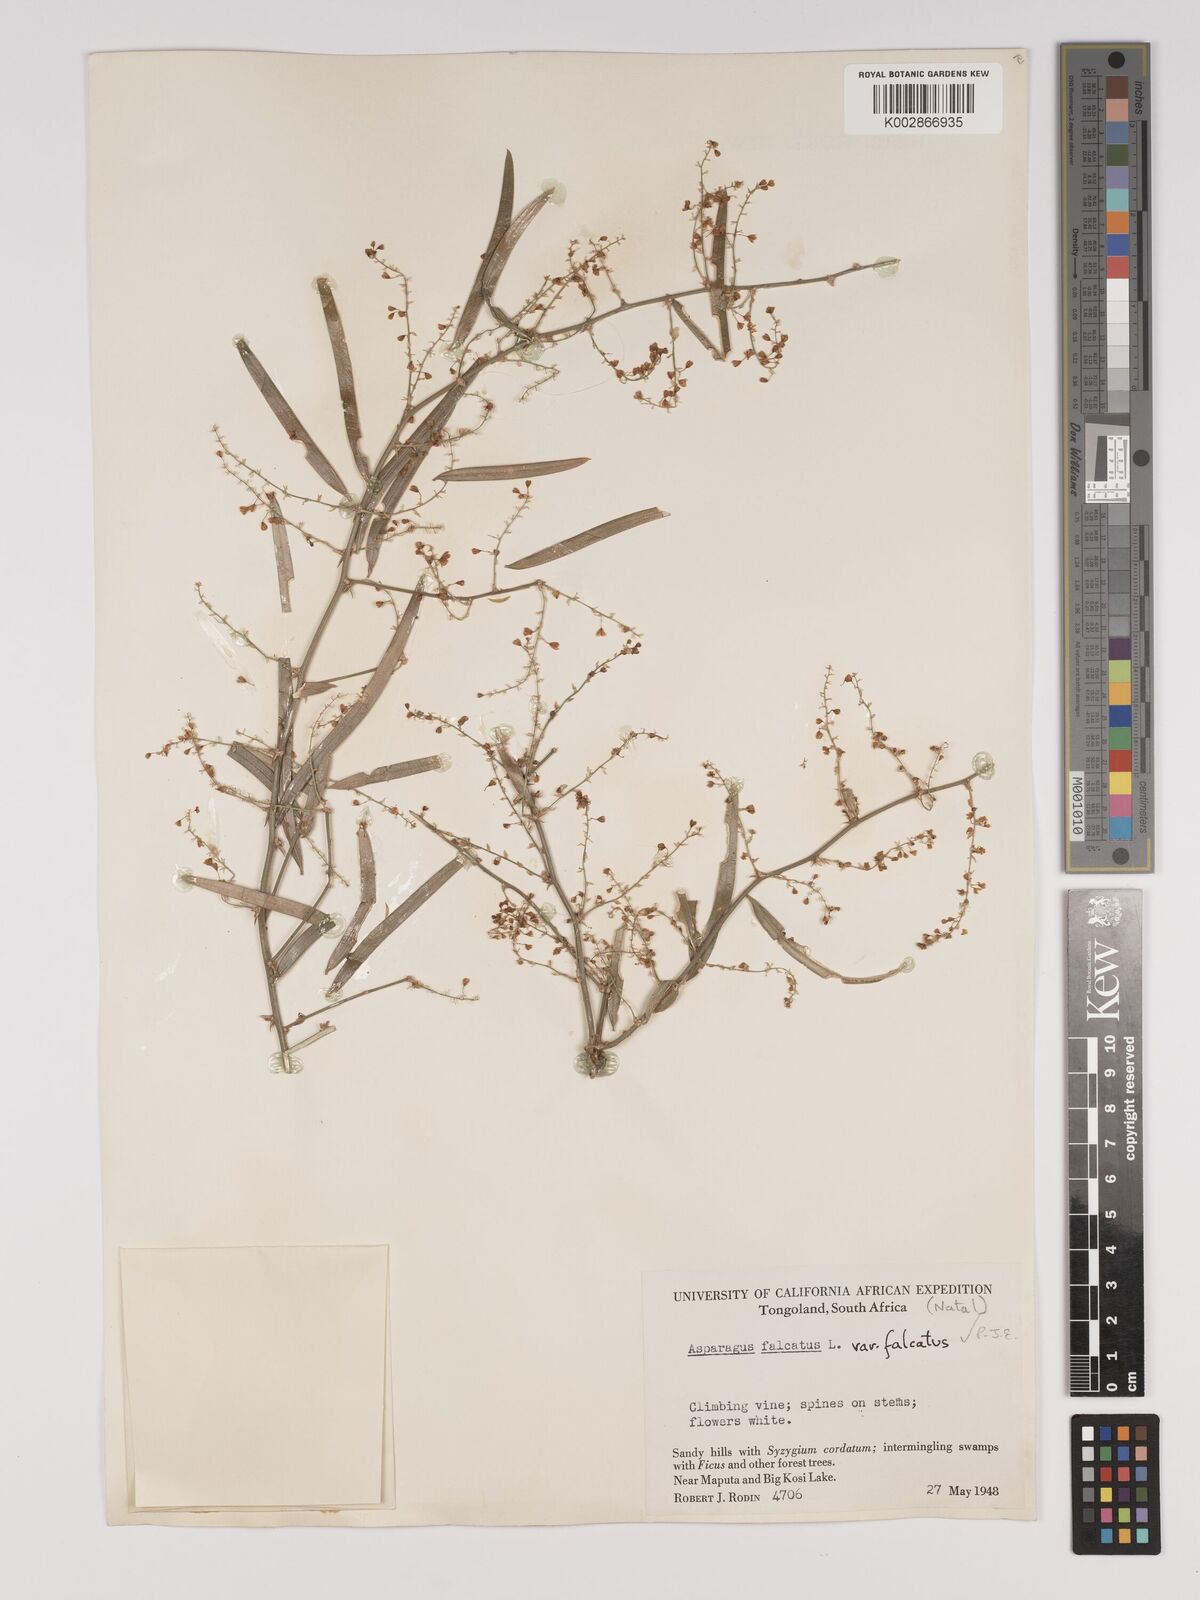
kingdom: Plantae
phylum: Tracheophyta
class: Liliopsida
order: Asparagales
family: Asparagaceae
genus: Asparagus
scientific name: Asparagus falcatus
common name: Asparagus
